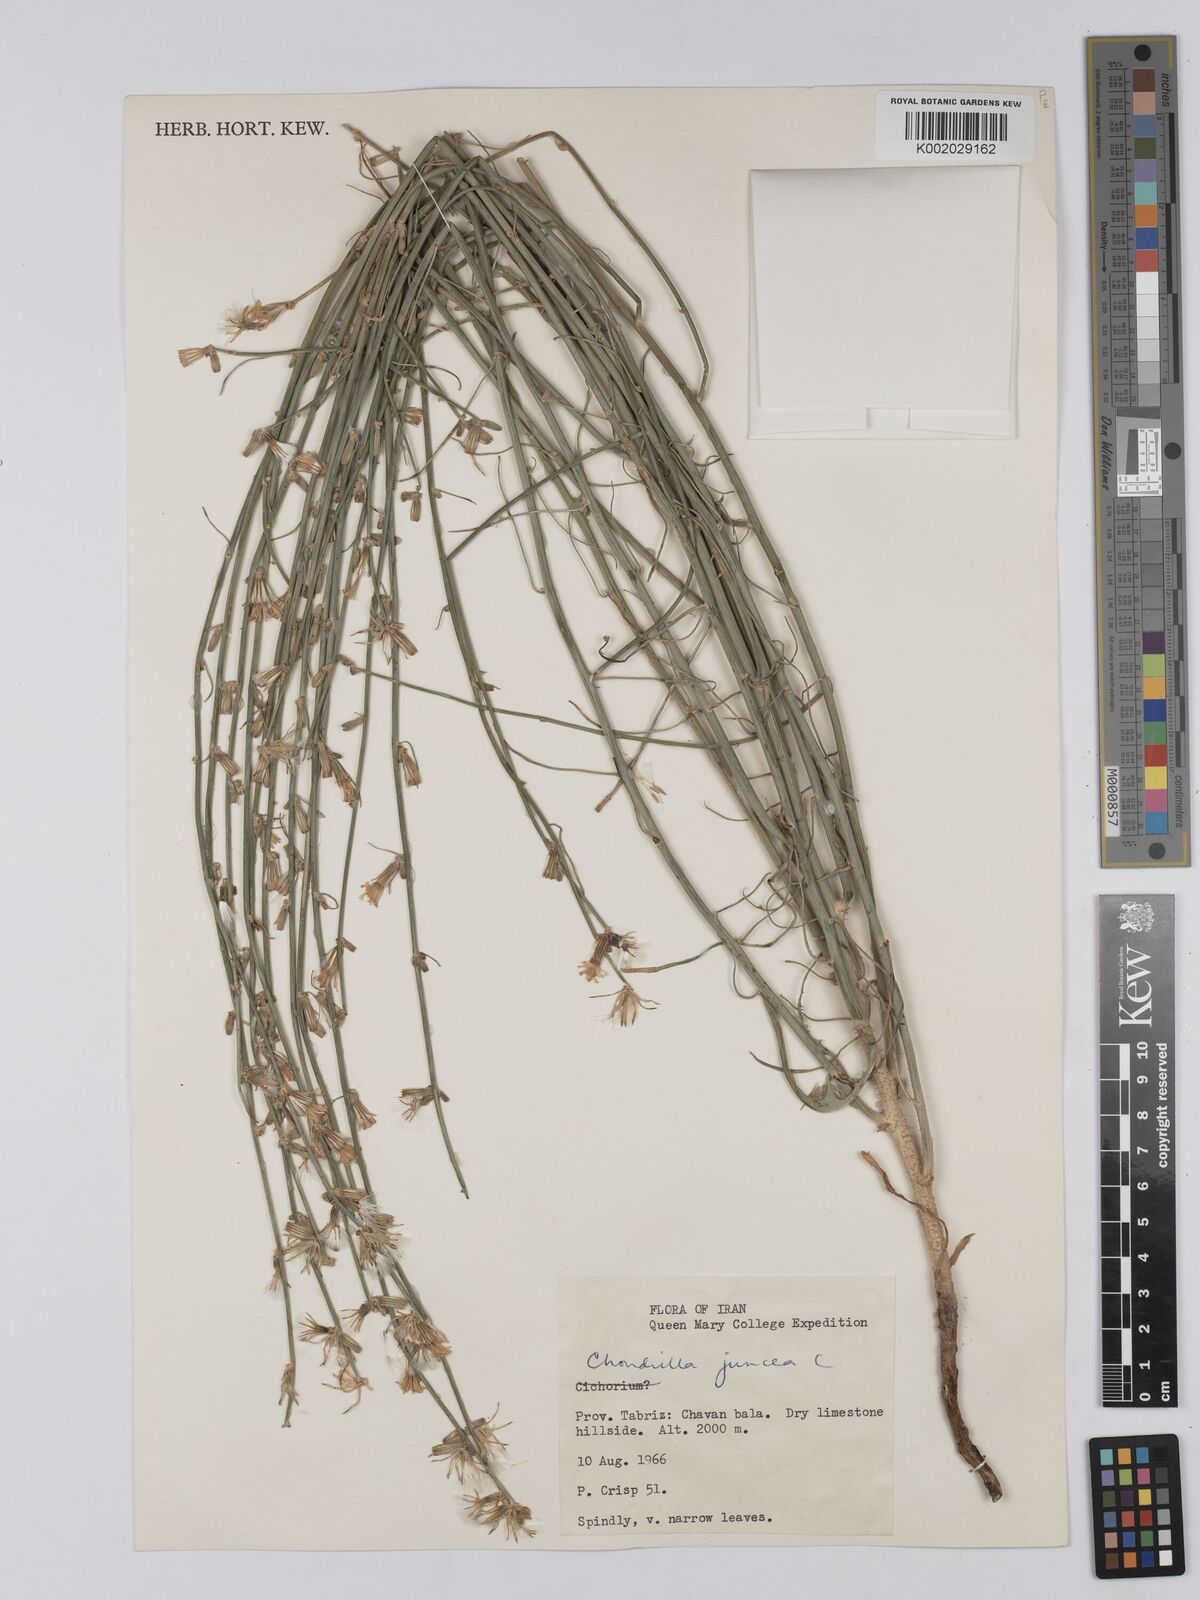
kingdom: Plantae
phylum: Tracheophyta
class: Magnoliopsida
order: Asterales
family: Asteraceae
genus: Chondrilla
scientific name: Chondrilla juncea
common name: Skeleton weed
